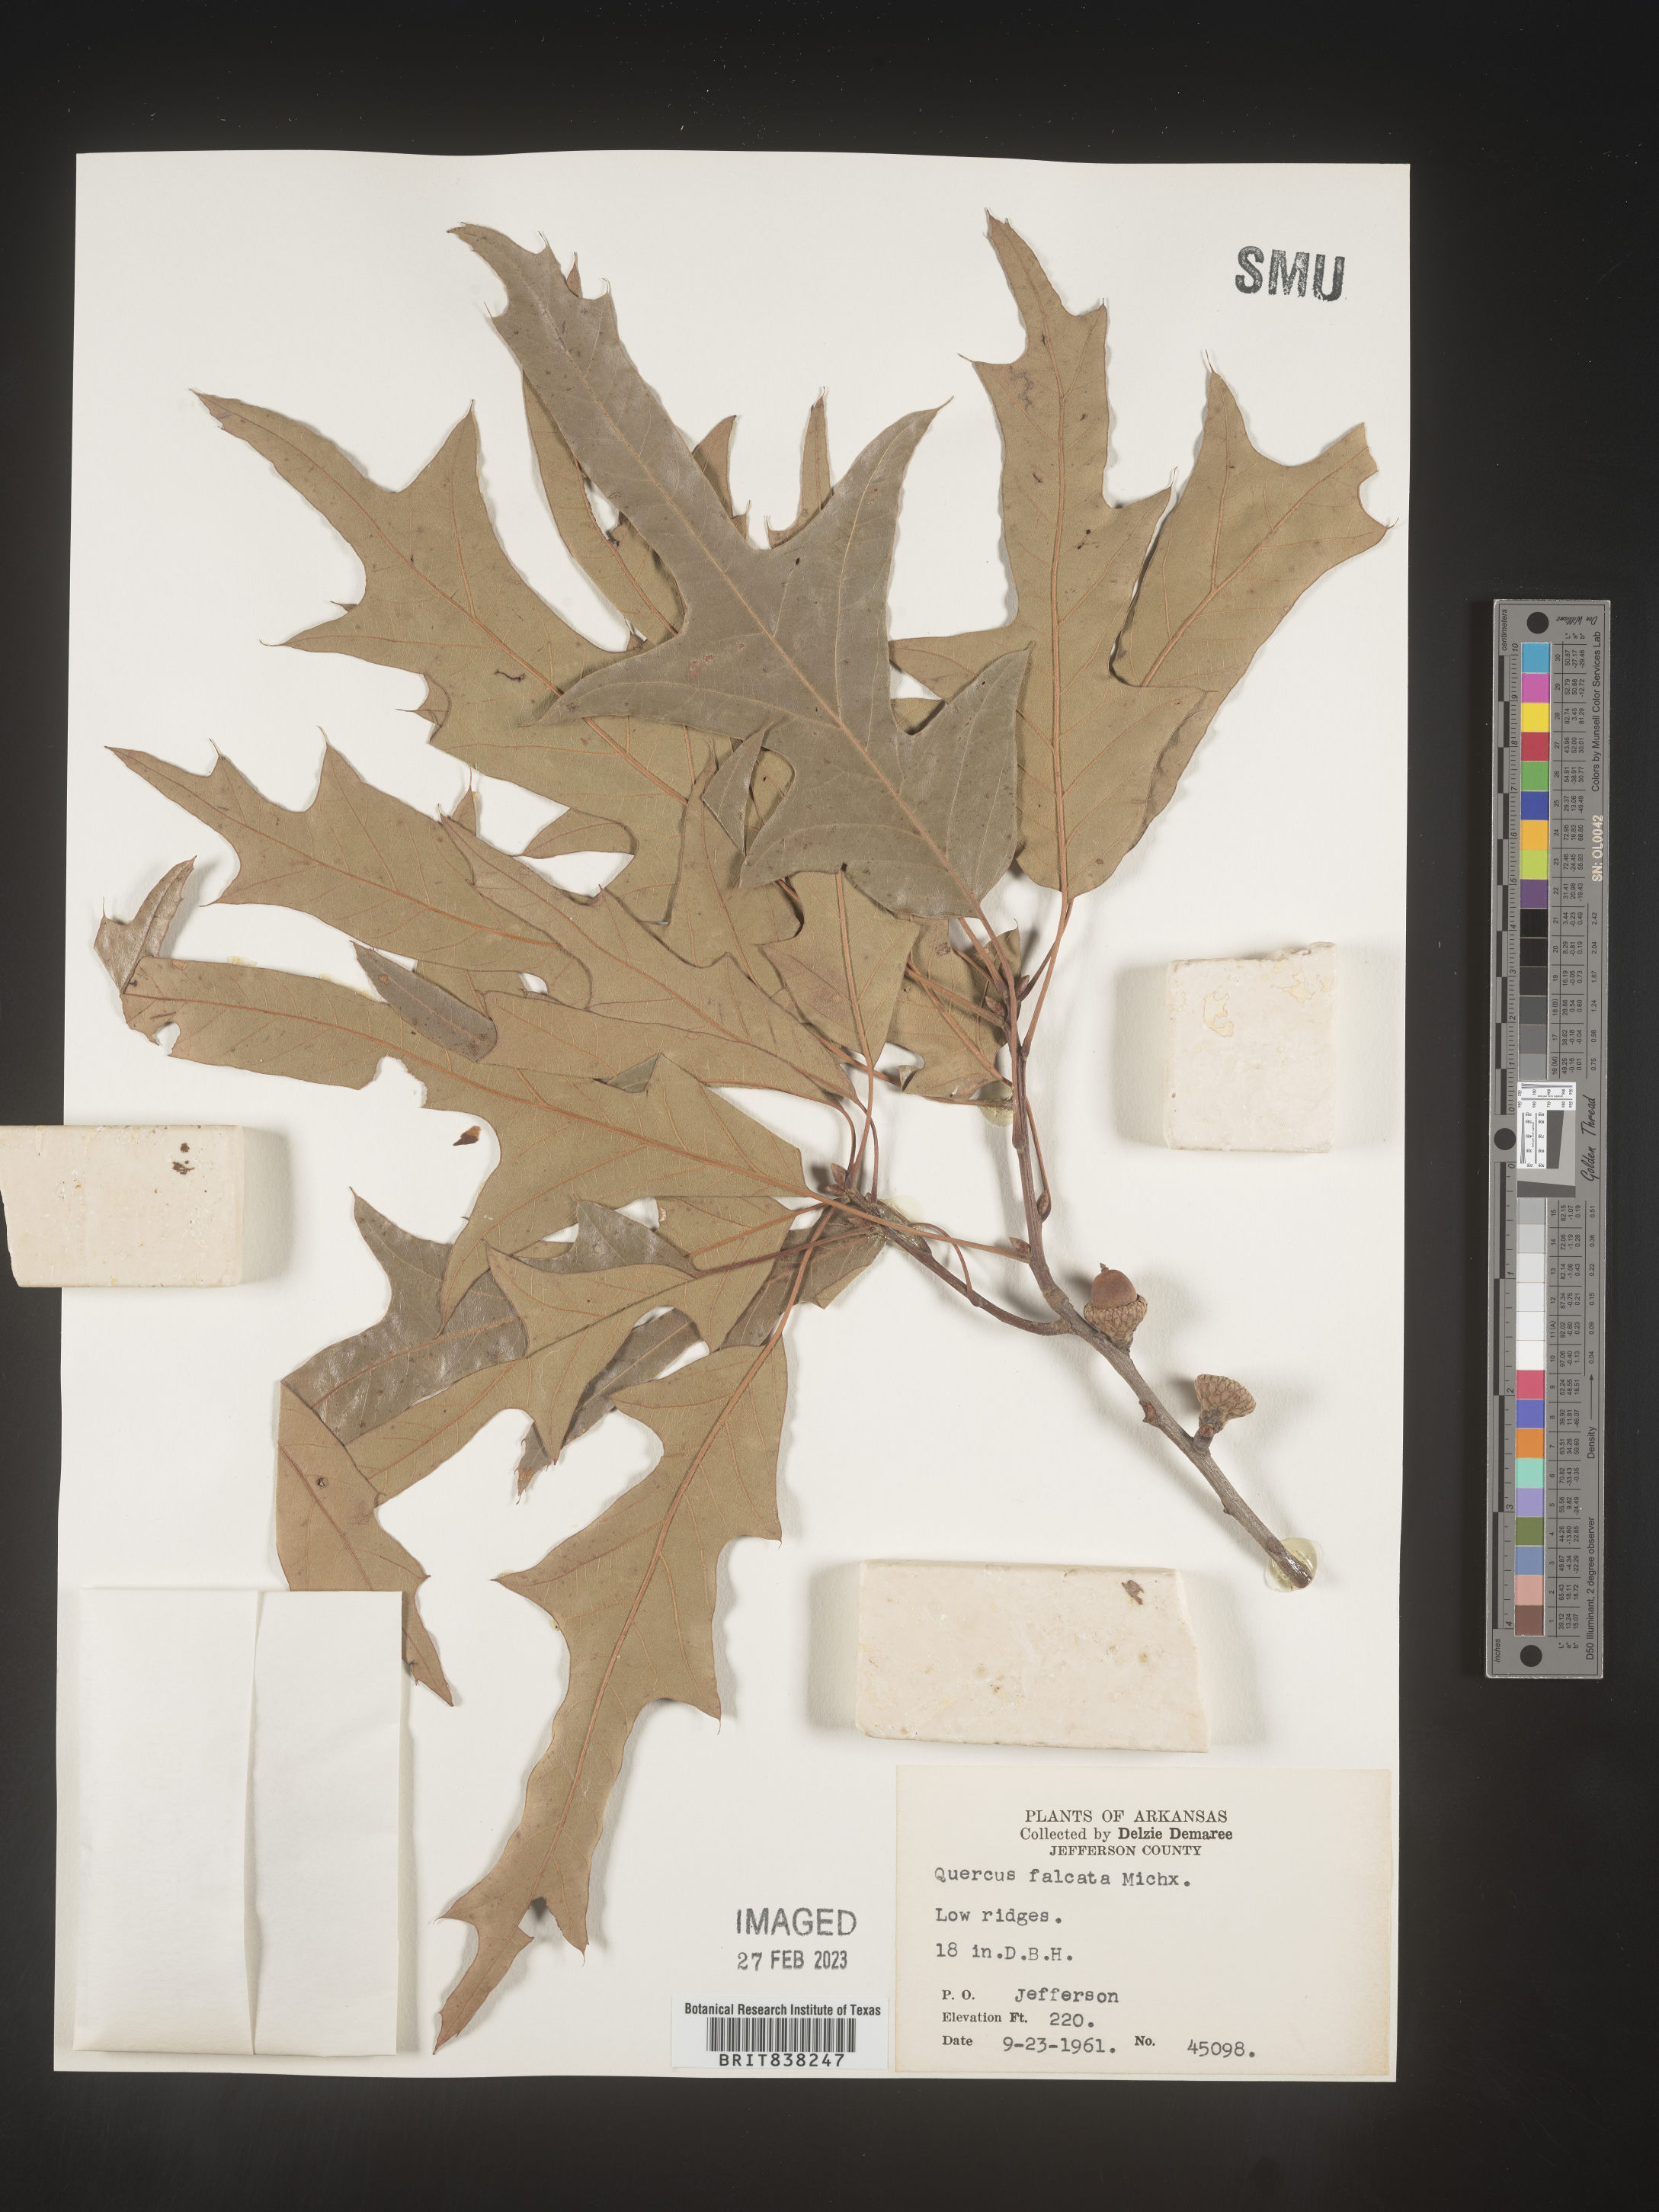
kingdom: Plantae
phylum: Tracheophyta
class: Magnoliopsida
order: Fagales
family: Fagaceae
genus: Quercus
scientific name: Quercus falcata
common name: Southern red oak
